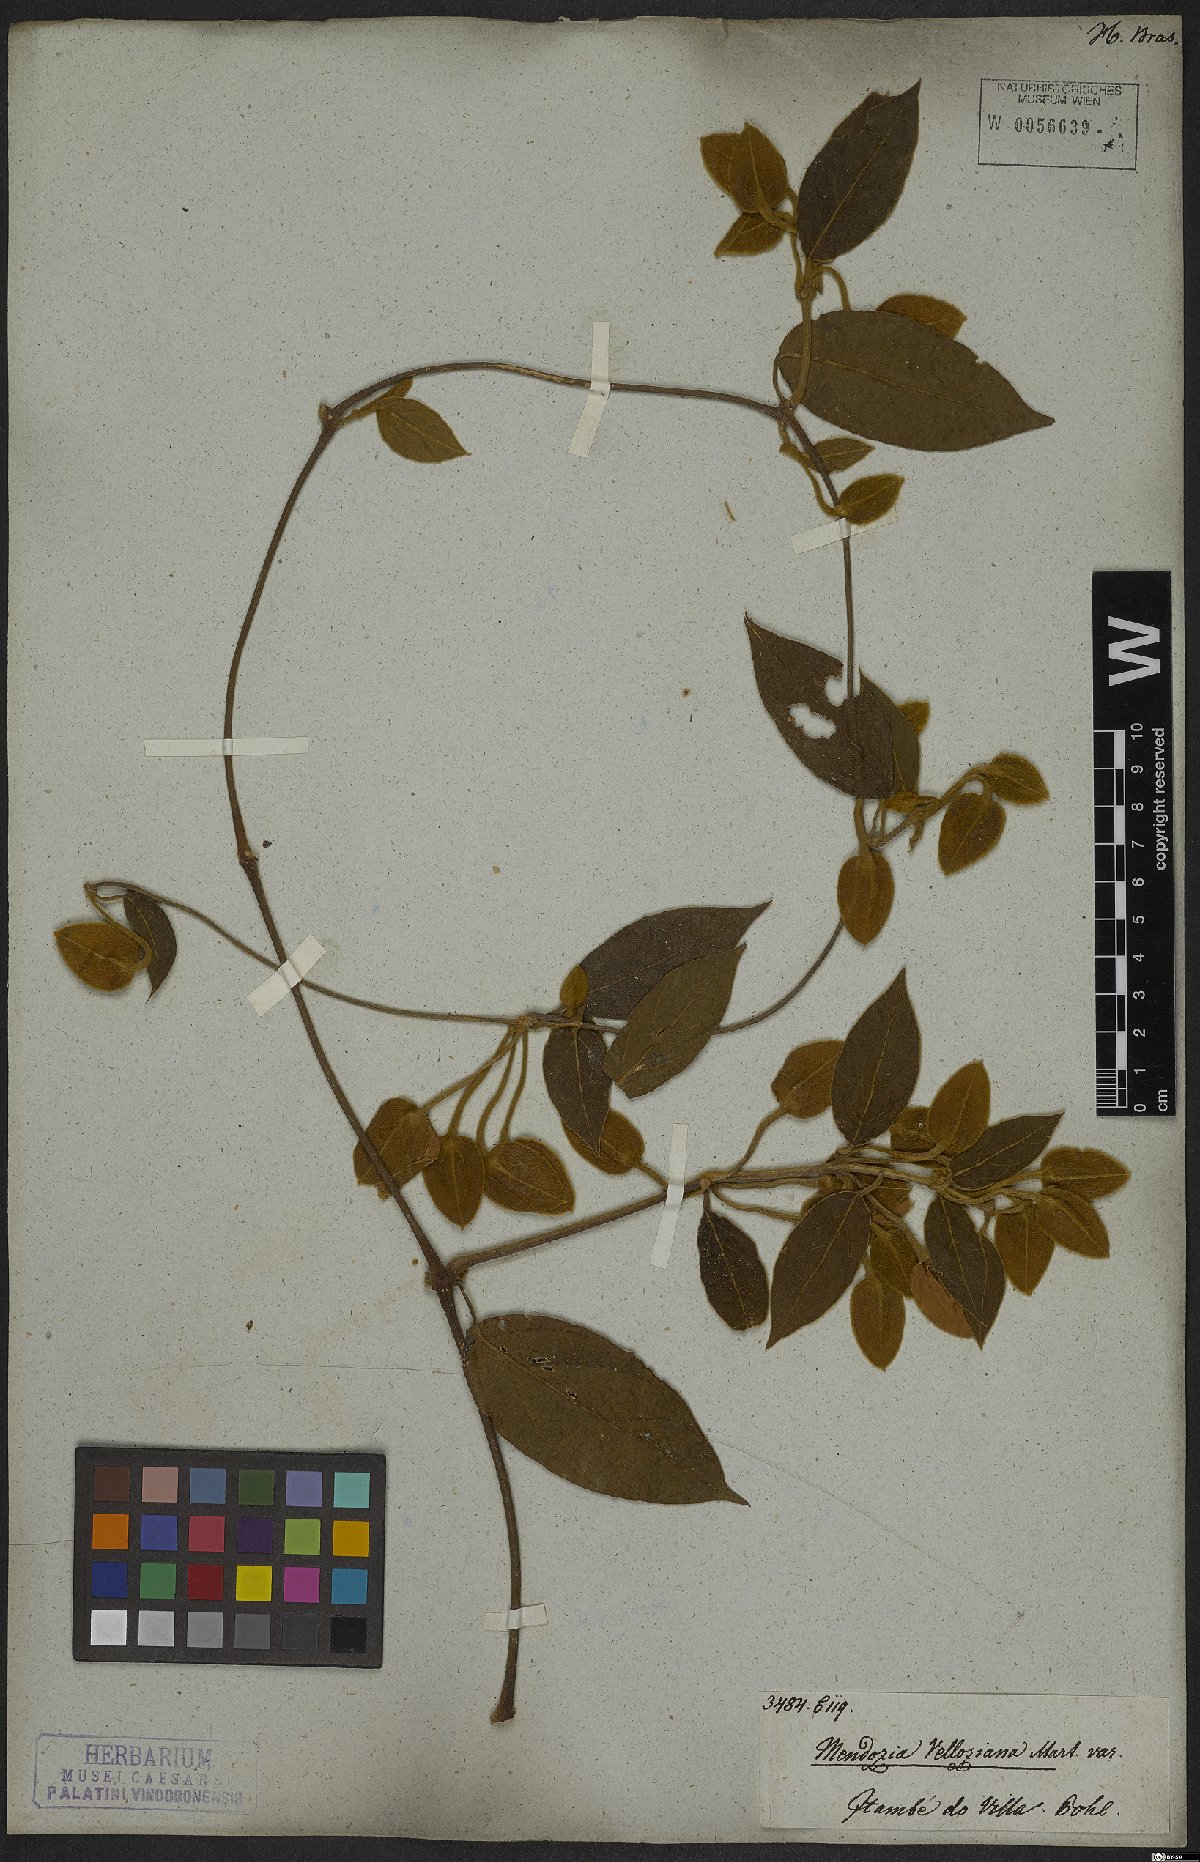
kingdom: Plantae
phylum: Tracheophyta
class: Magnoliopsida
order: Lamiales
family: Acanthaceae
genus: Mendoncia
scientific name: Mendoncia velloziana
